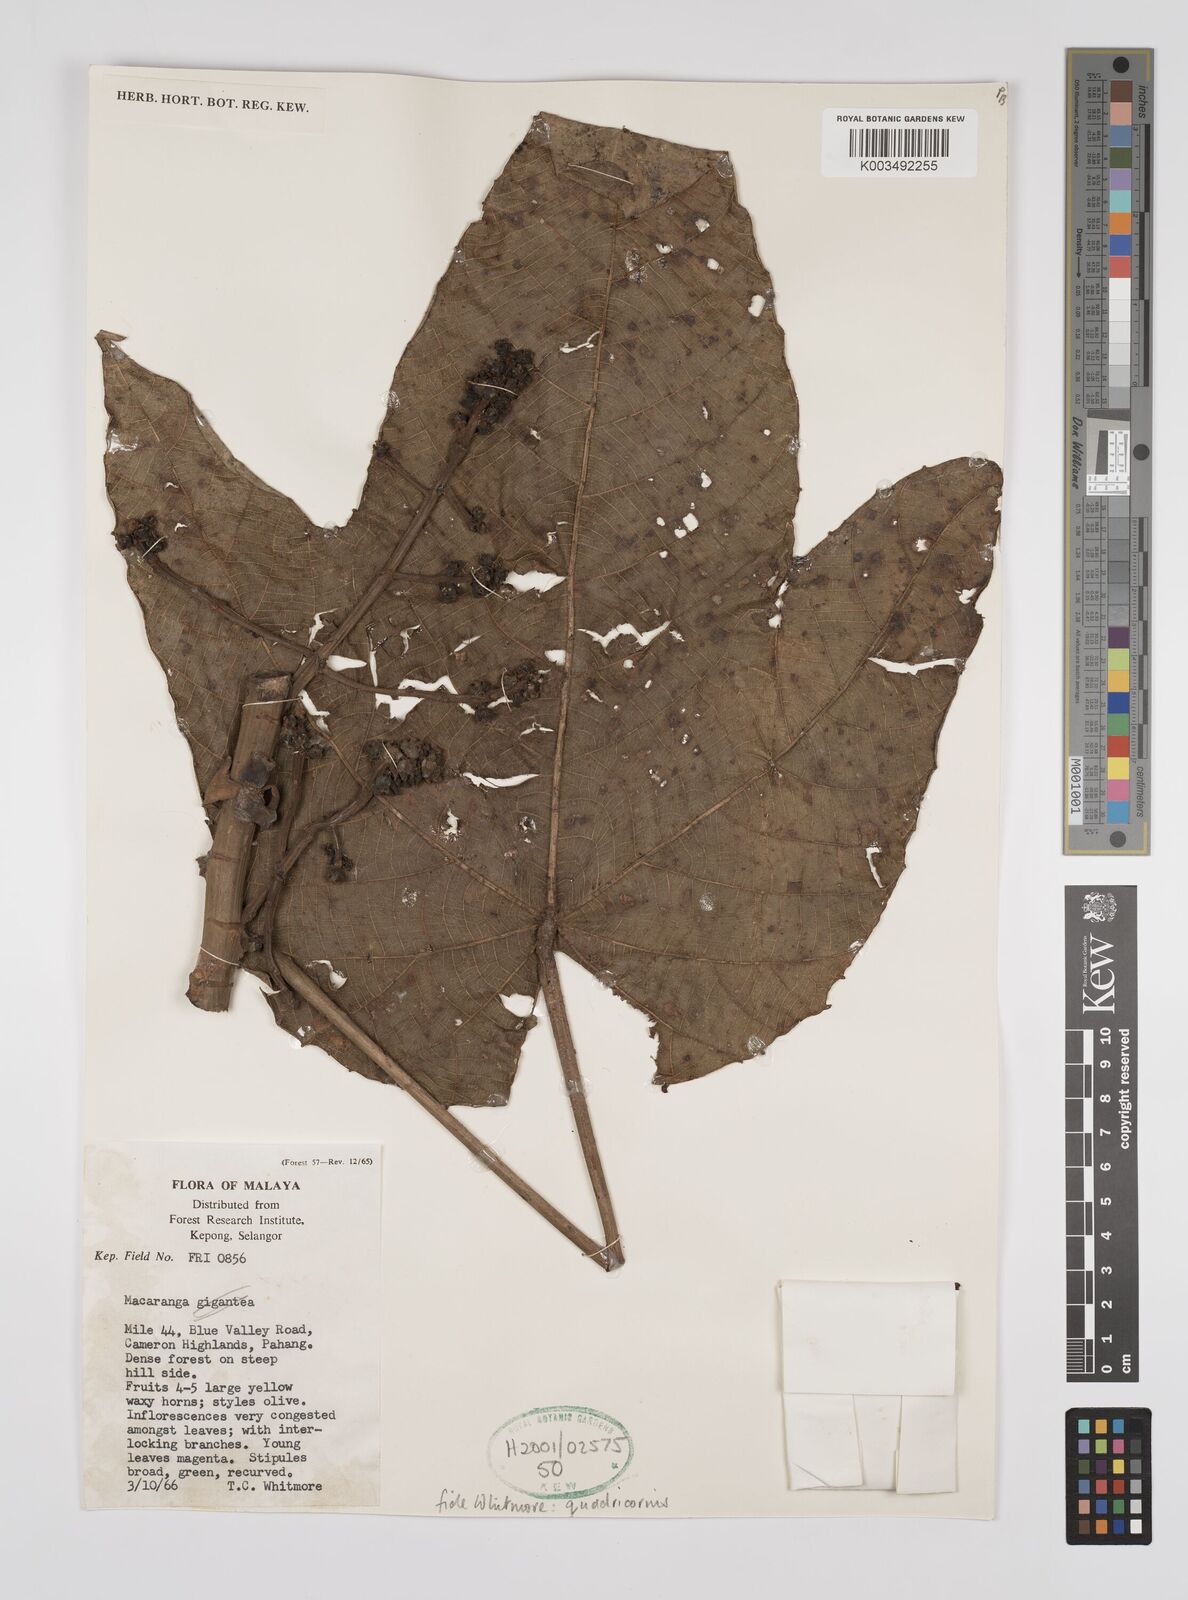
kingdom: Plantae
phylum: Tracheophyta
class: Magnoliopsida
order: Malpighiales
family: Euphorbiaceae
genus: Macaranga
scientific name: Macaranga triloba
